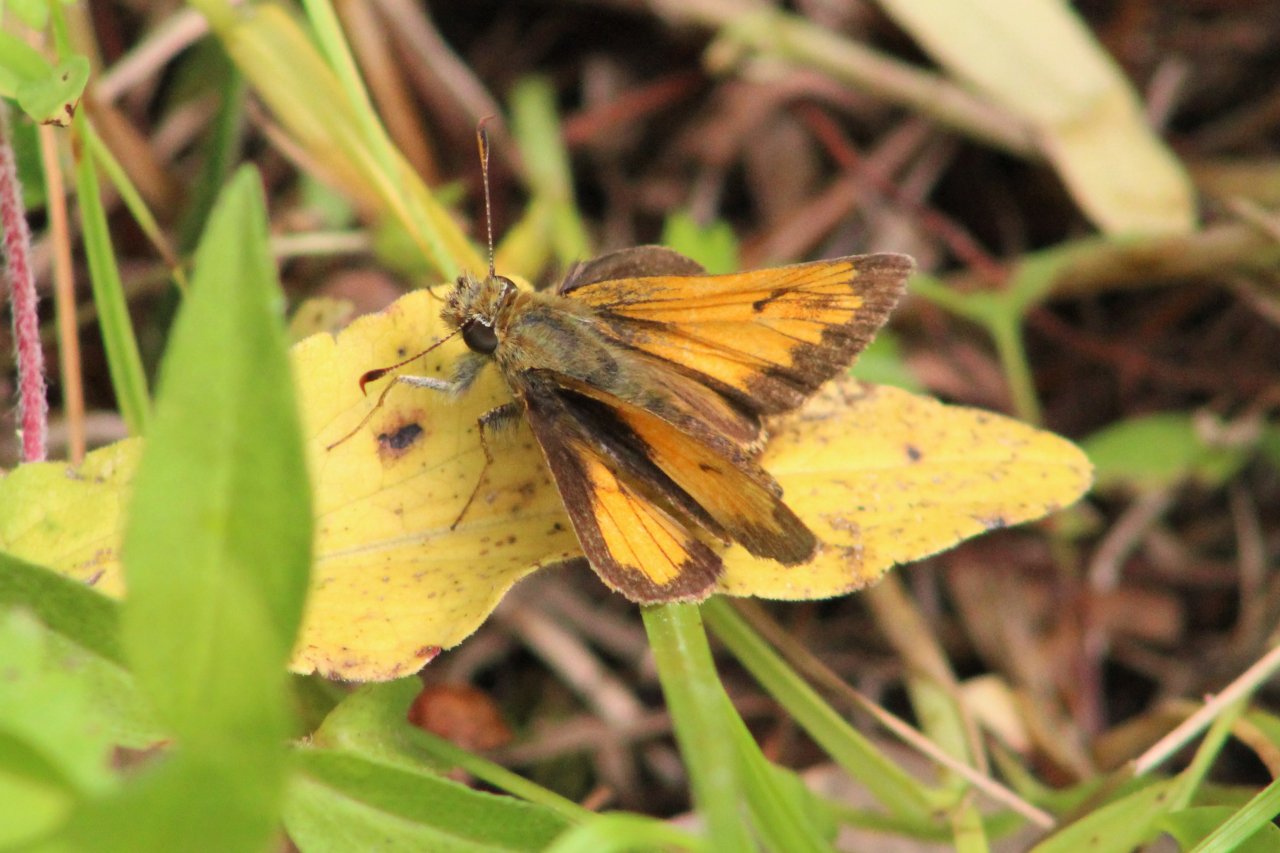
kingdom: Animalia
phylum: Arthropoda
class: Insecta
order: Lepidoptera
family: Hesperiidae
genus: Lon
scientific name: Lon hobomok
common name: Hobomok Skipper
